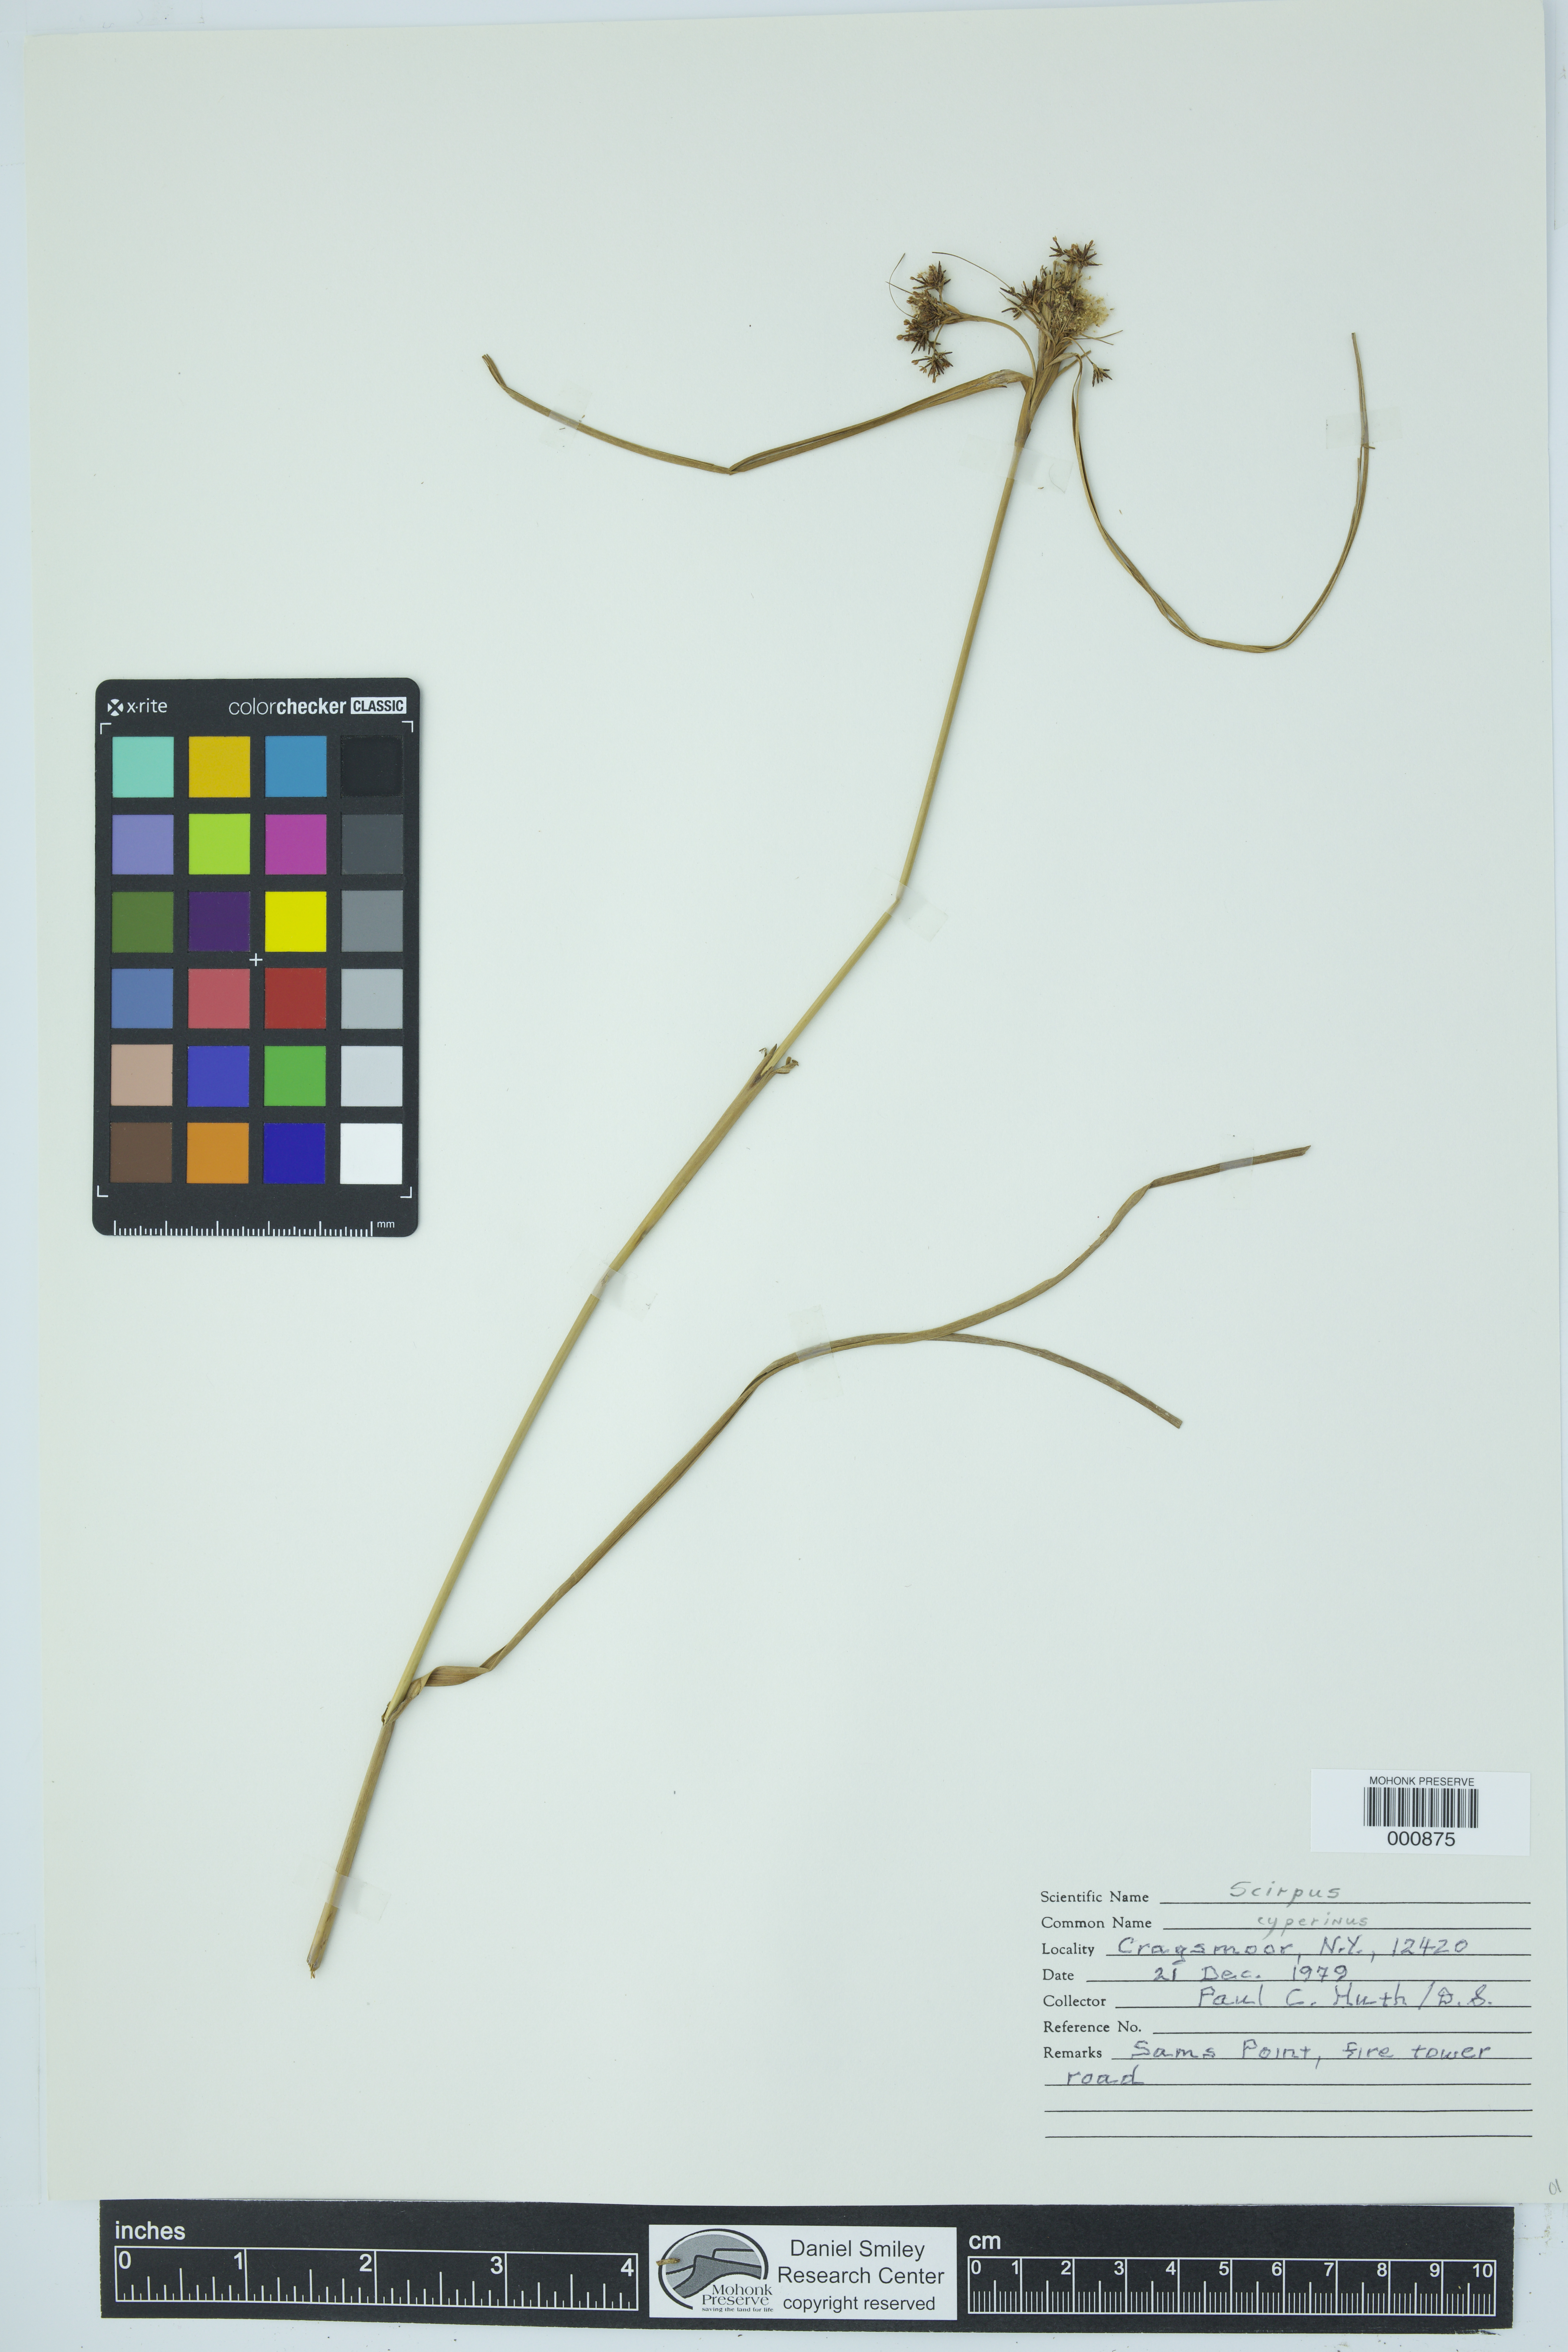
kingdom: Plantae
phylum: Tracheophyta
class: Liliopsida
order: Poales
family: Cyperaceae
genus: Scirpus
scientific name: Scirpus cyperinus
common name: Black-sheathed bulrush
